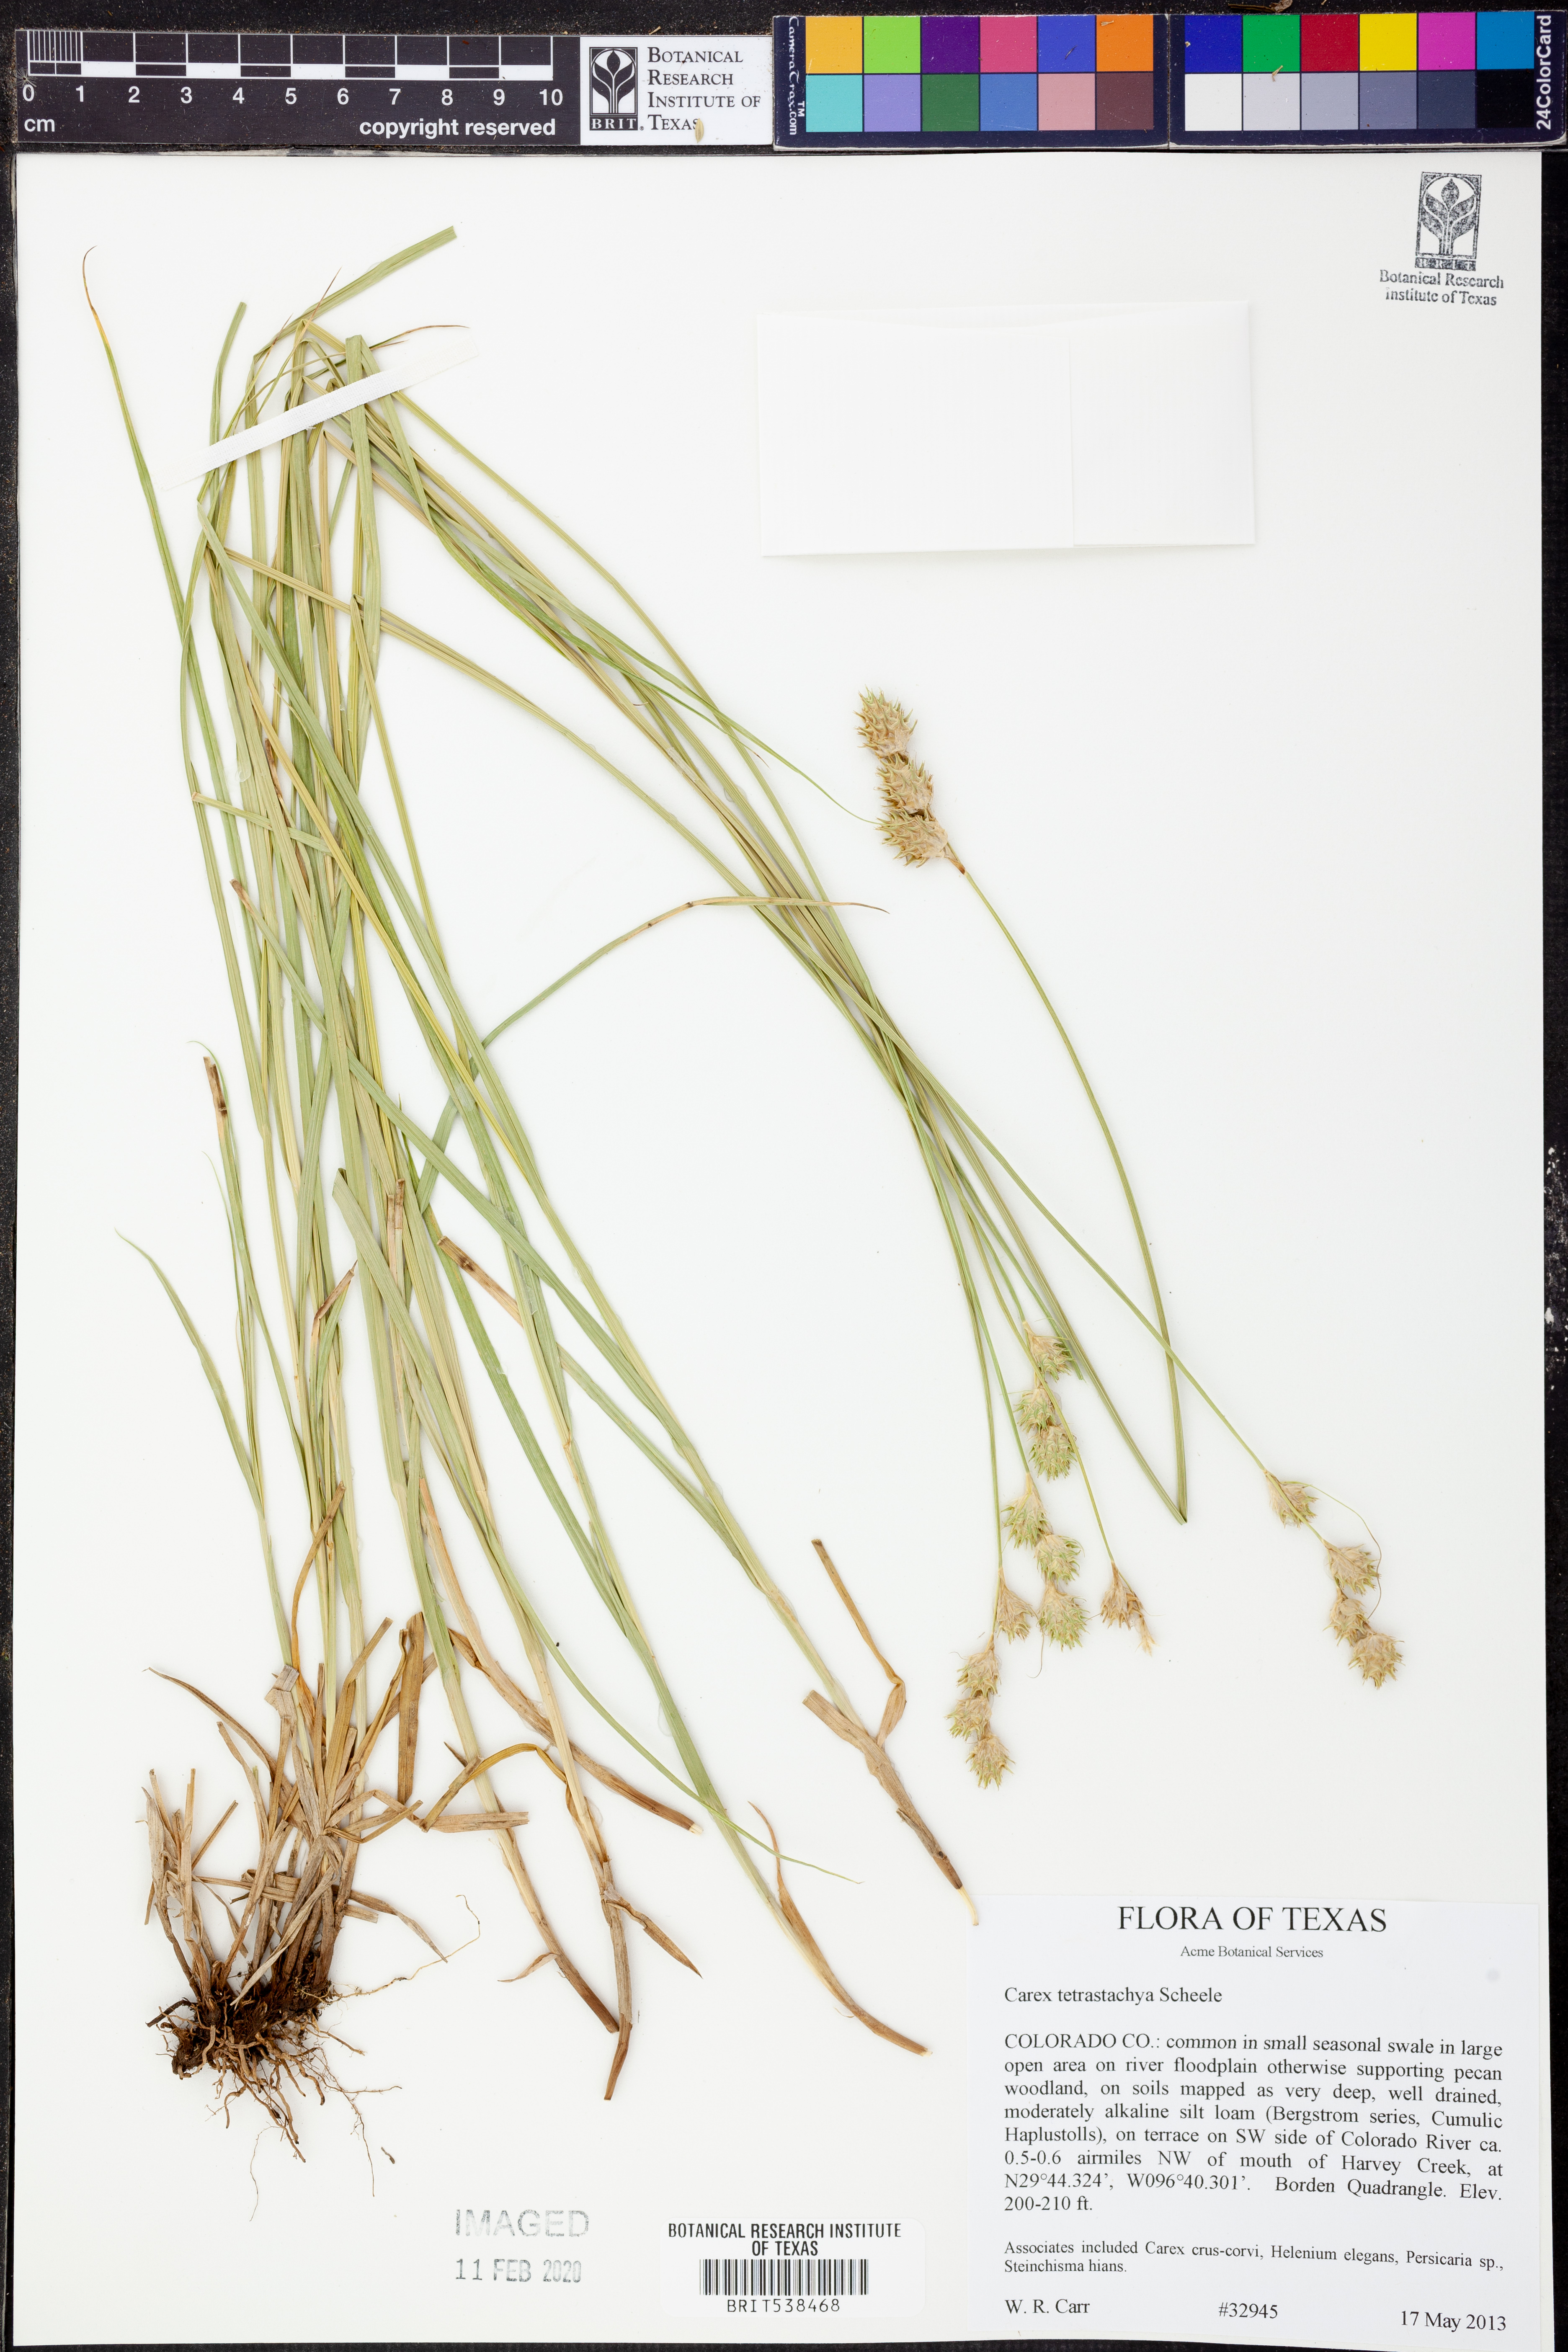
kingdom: Plantae
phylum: Tracheophyta
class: Liliopsida
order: Poales
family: Cyperaceae
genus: Carex
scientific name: Carex tetrastachya
